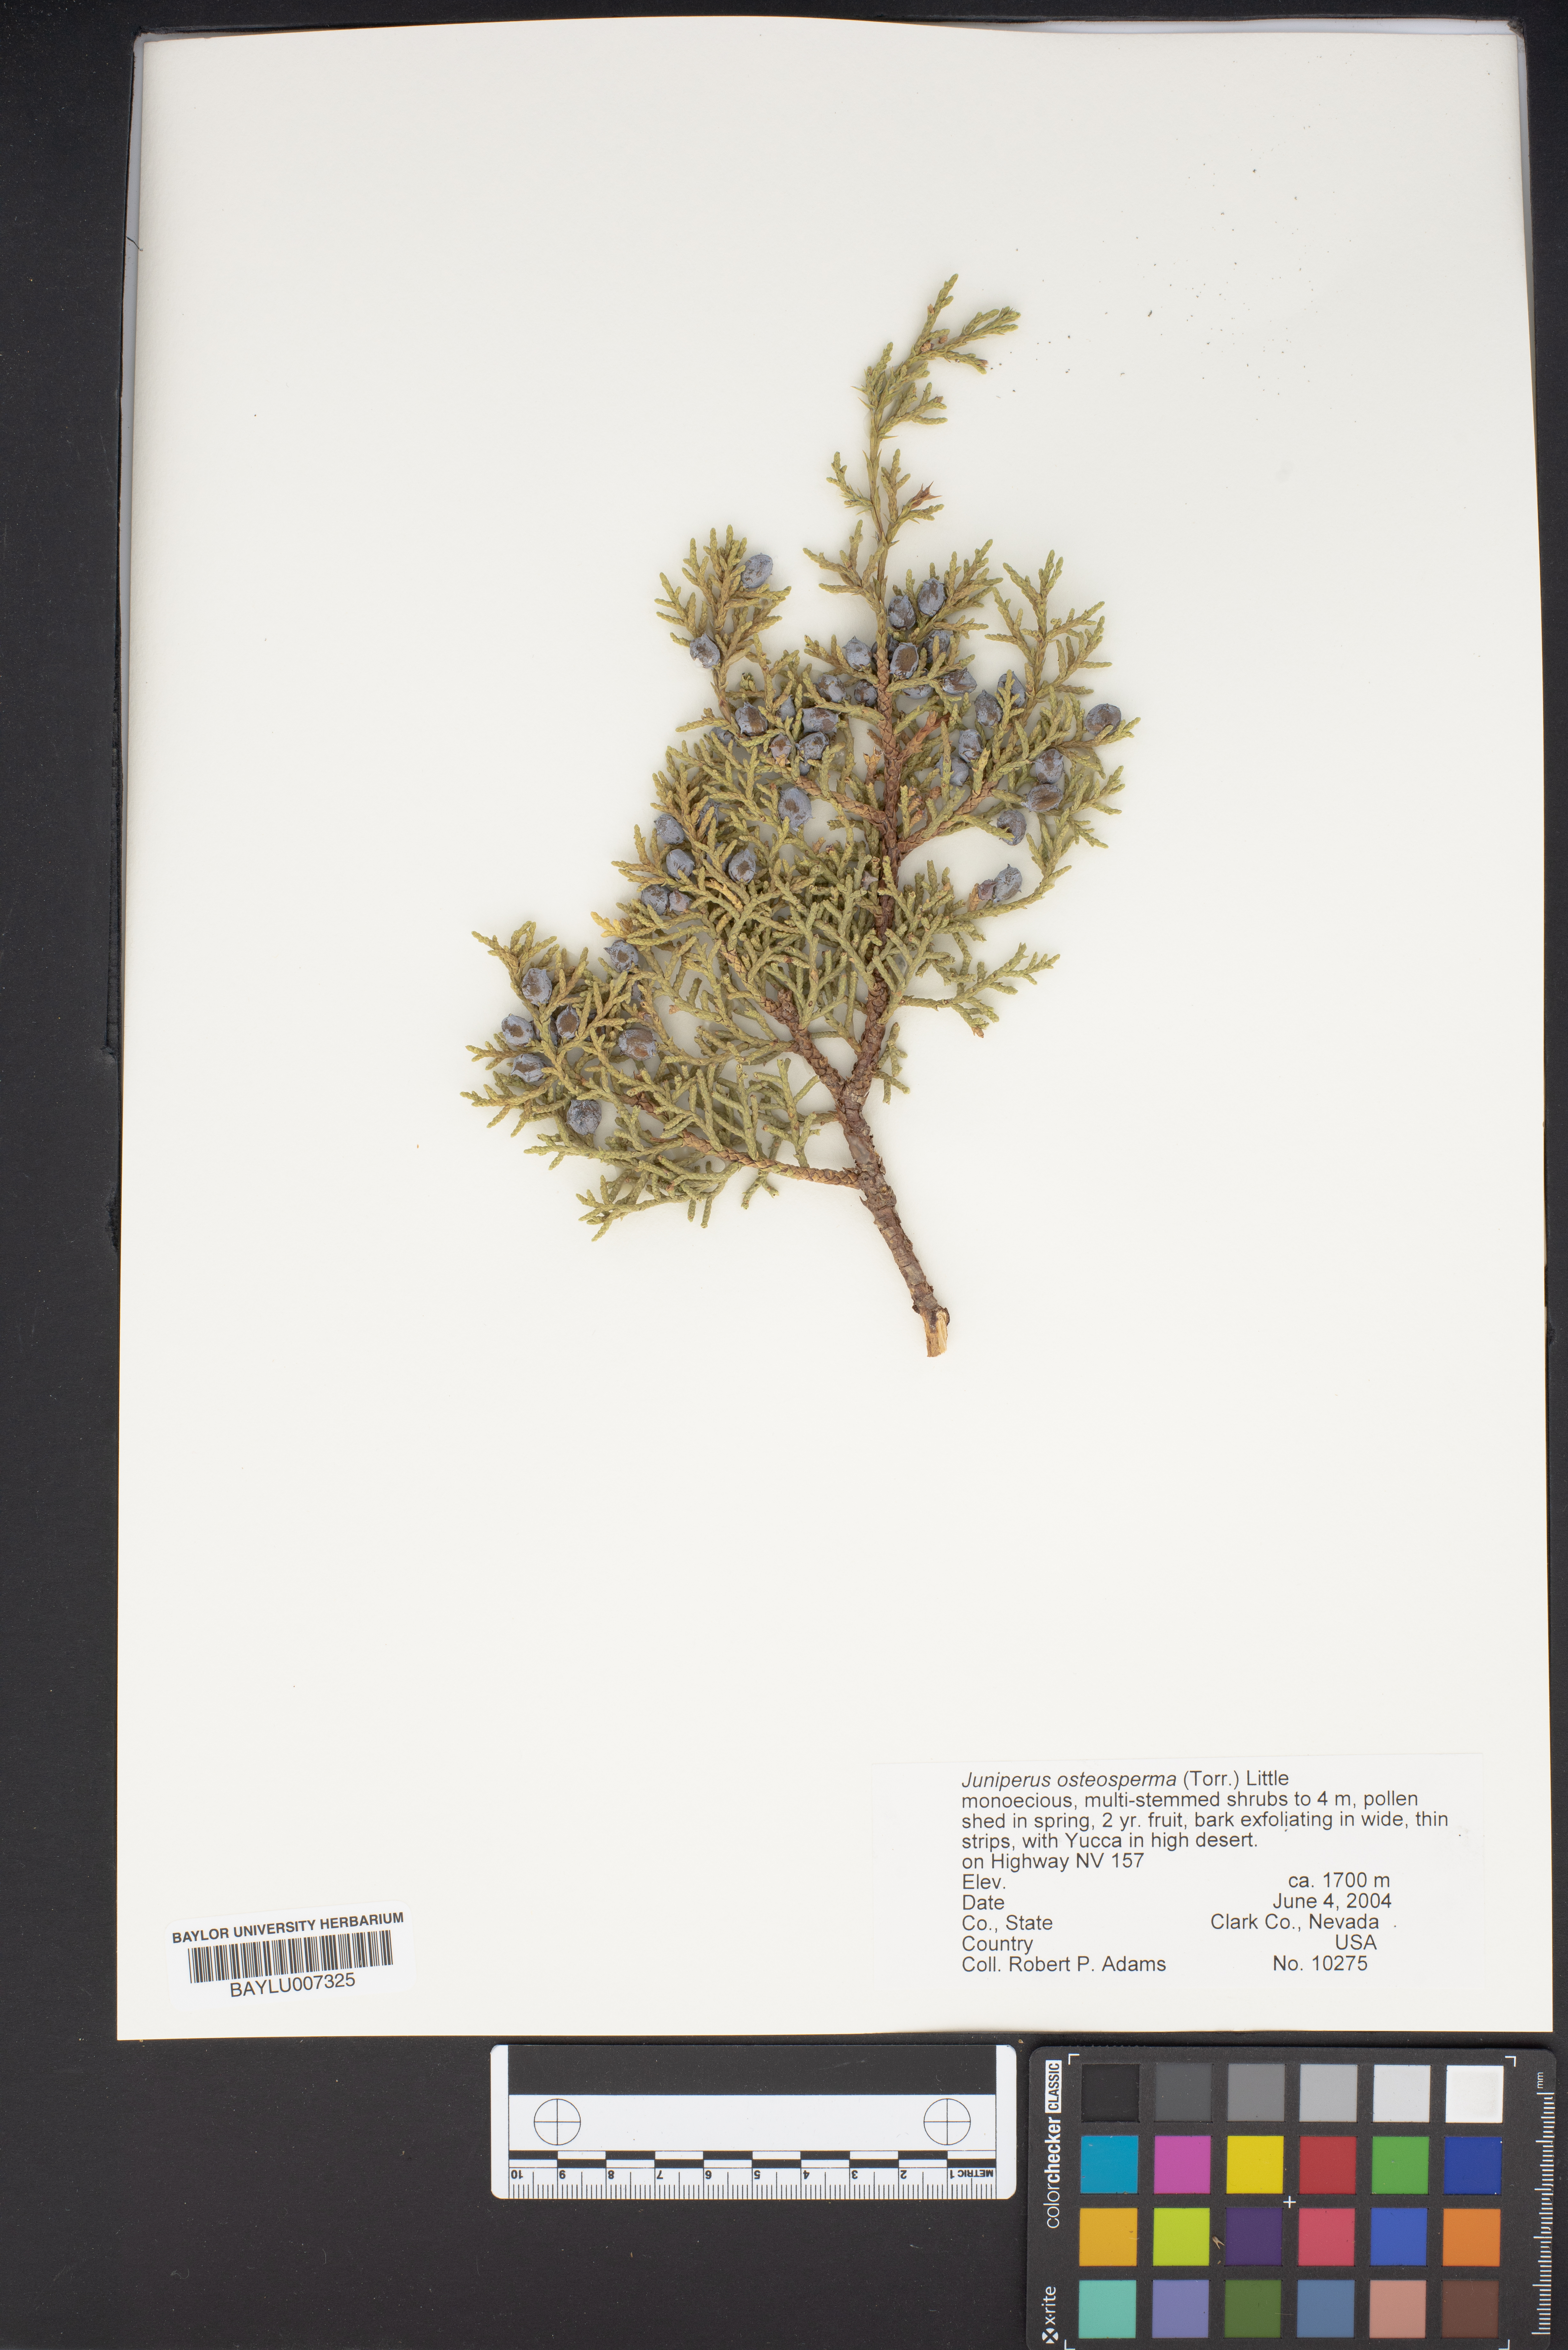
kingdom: Plantae
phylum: Tracheophyta
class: Pinopsida
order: Pinales
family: Cupressaceae
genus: Juniperus
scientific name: Juniperus osteosperma
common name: Utah juniper
